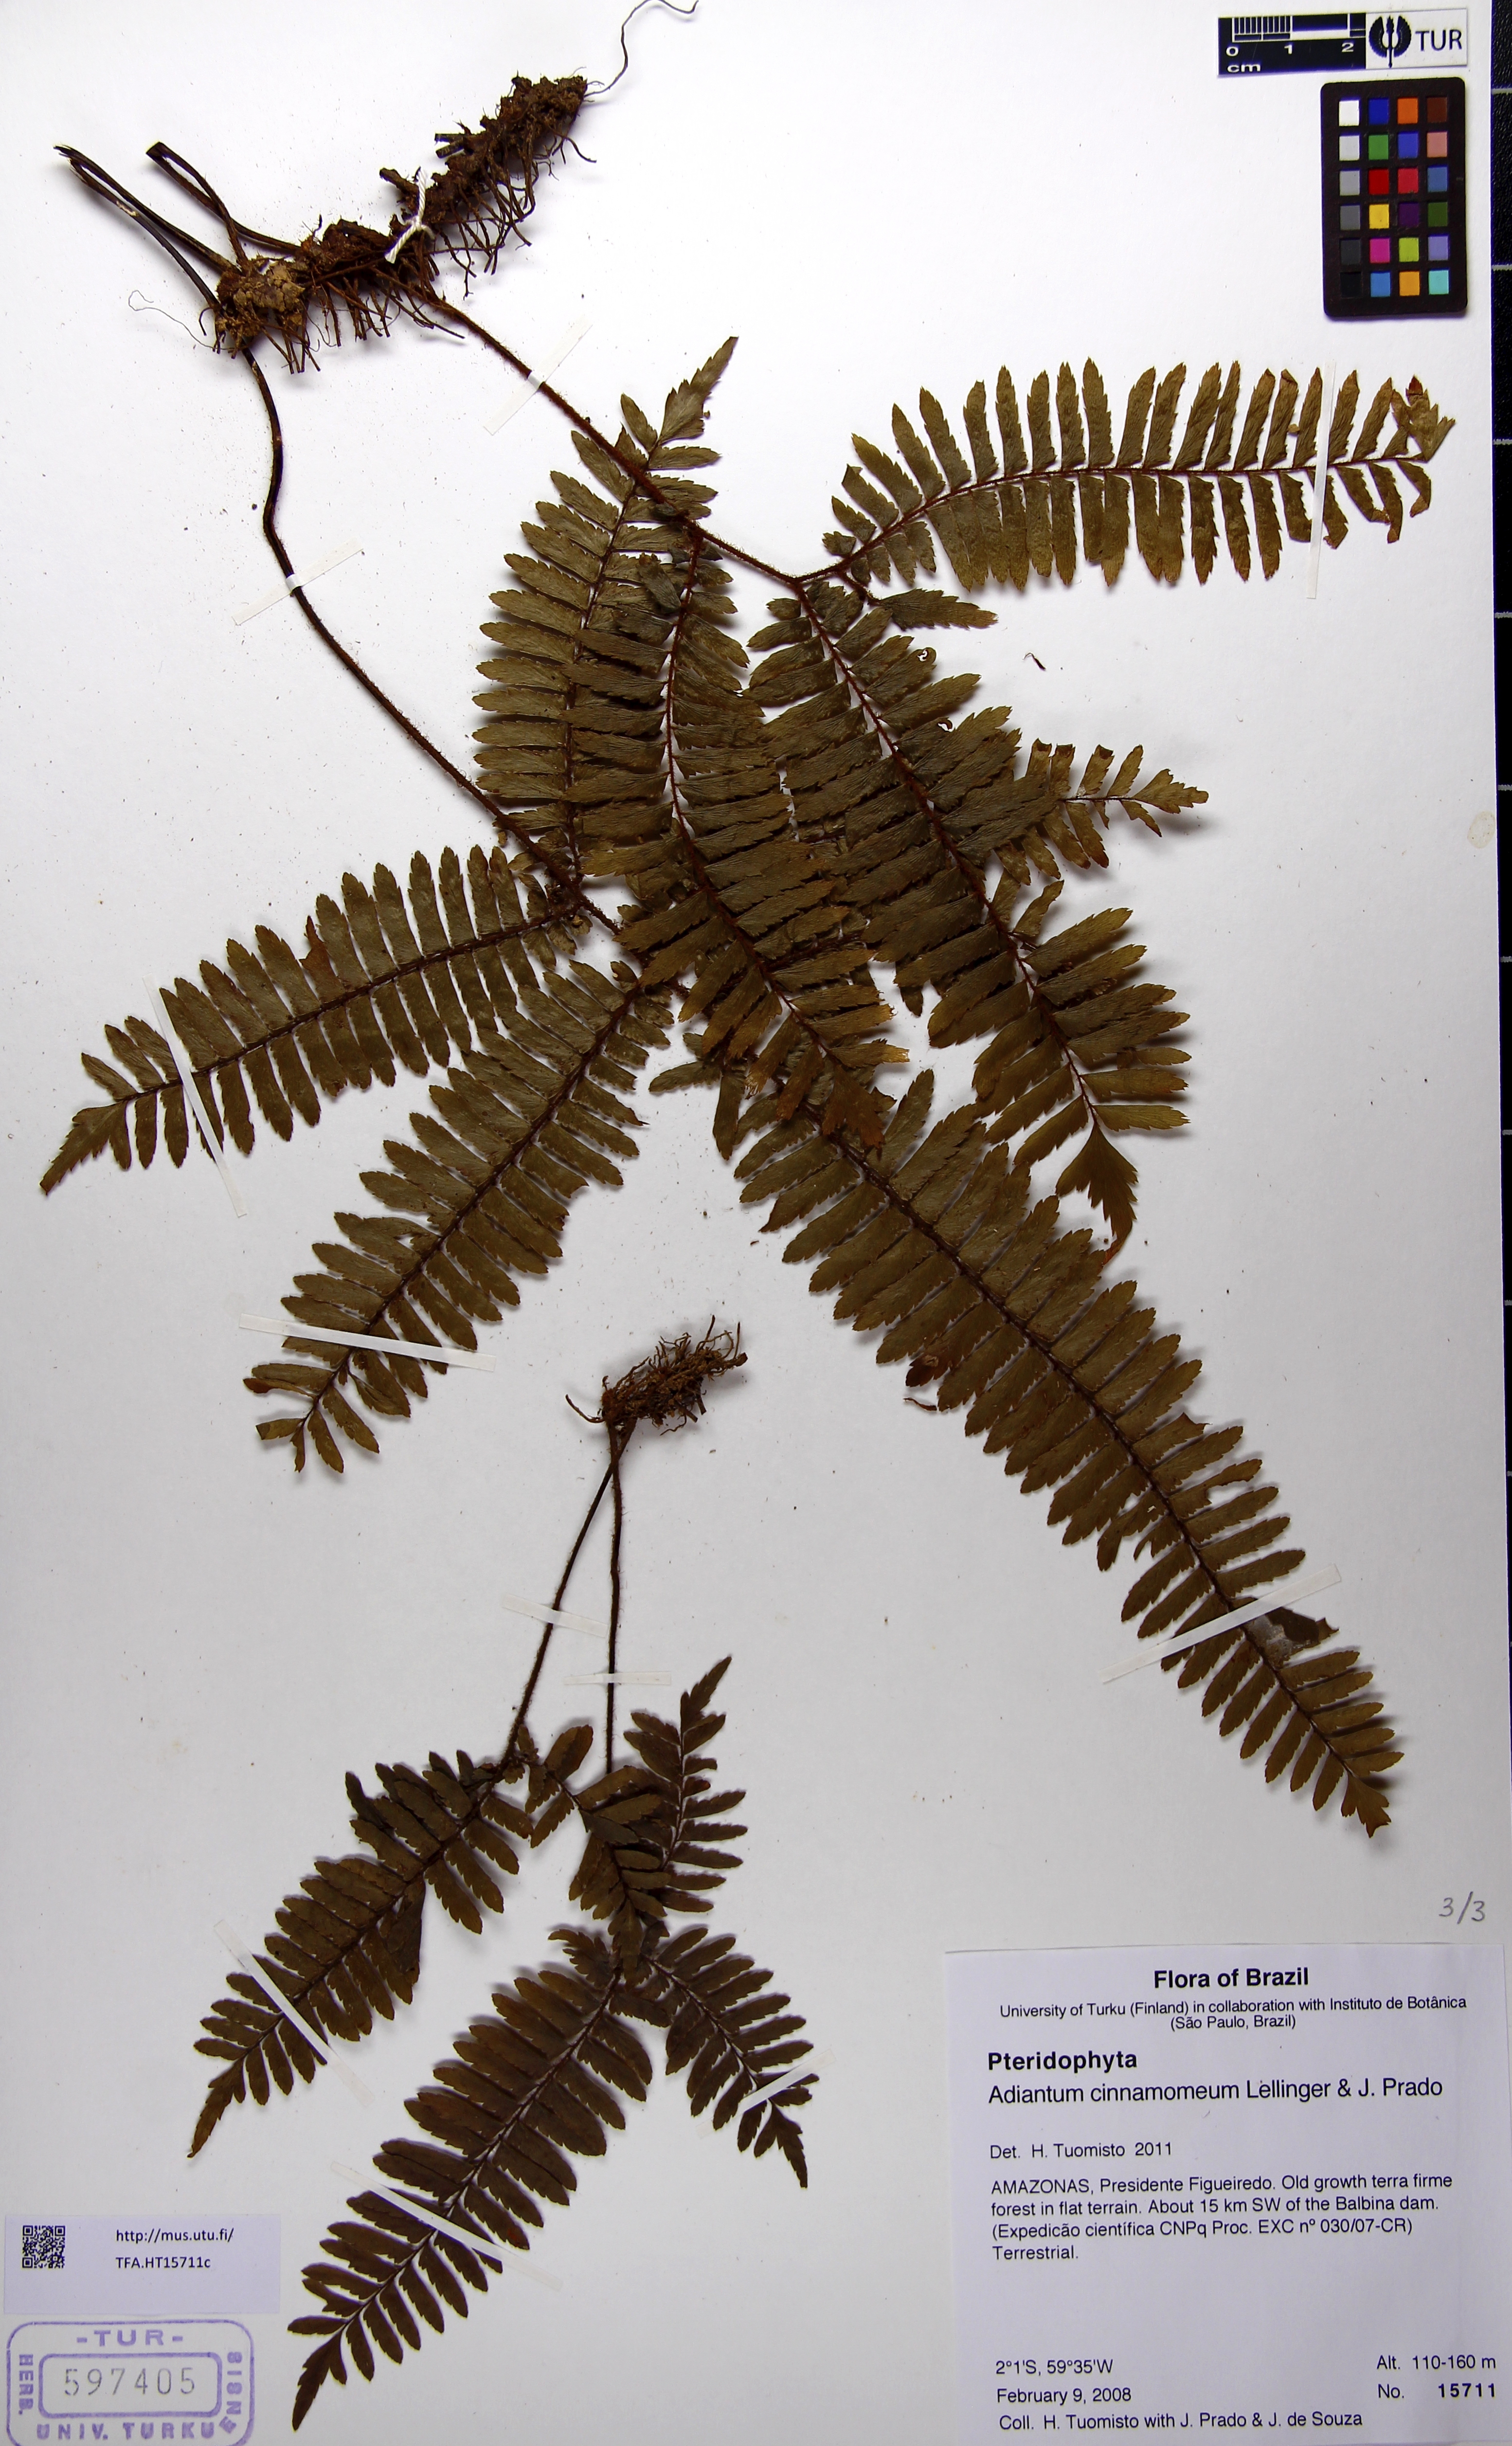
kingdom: Plantae
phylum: Tracheophyta
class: Polypodiopsida
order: Polypodiales
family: Pteridaceae
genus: Adiantum
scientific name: Adiantum cinnamomeum
